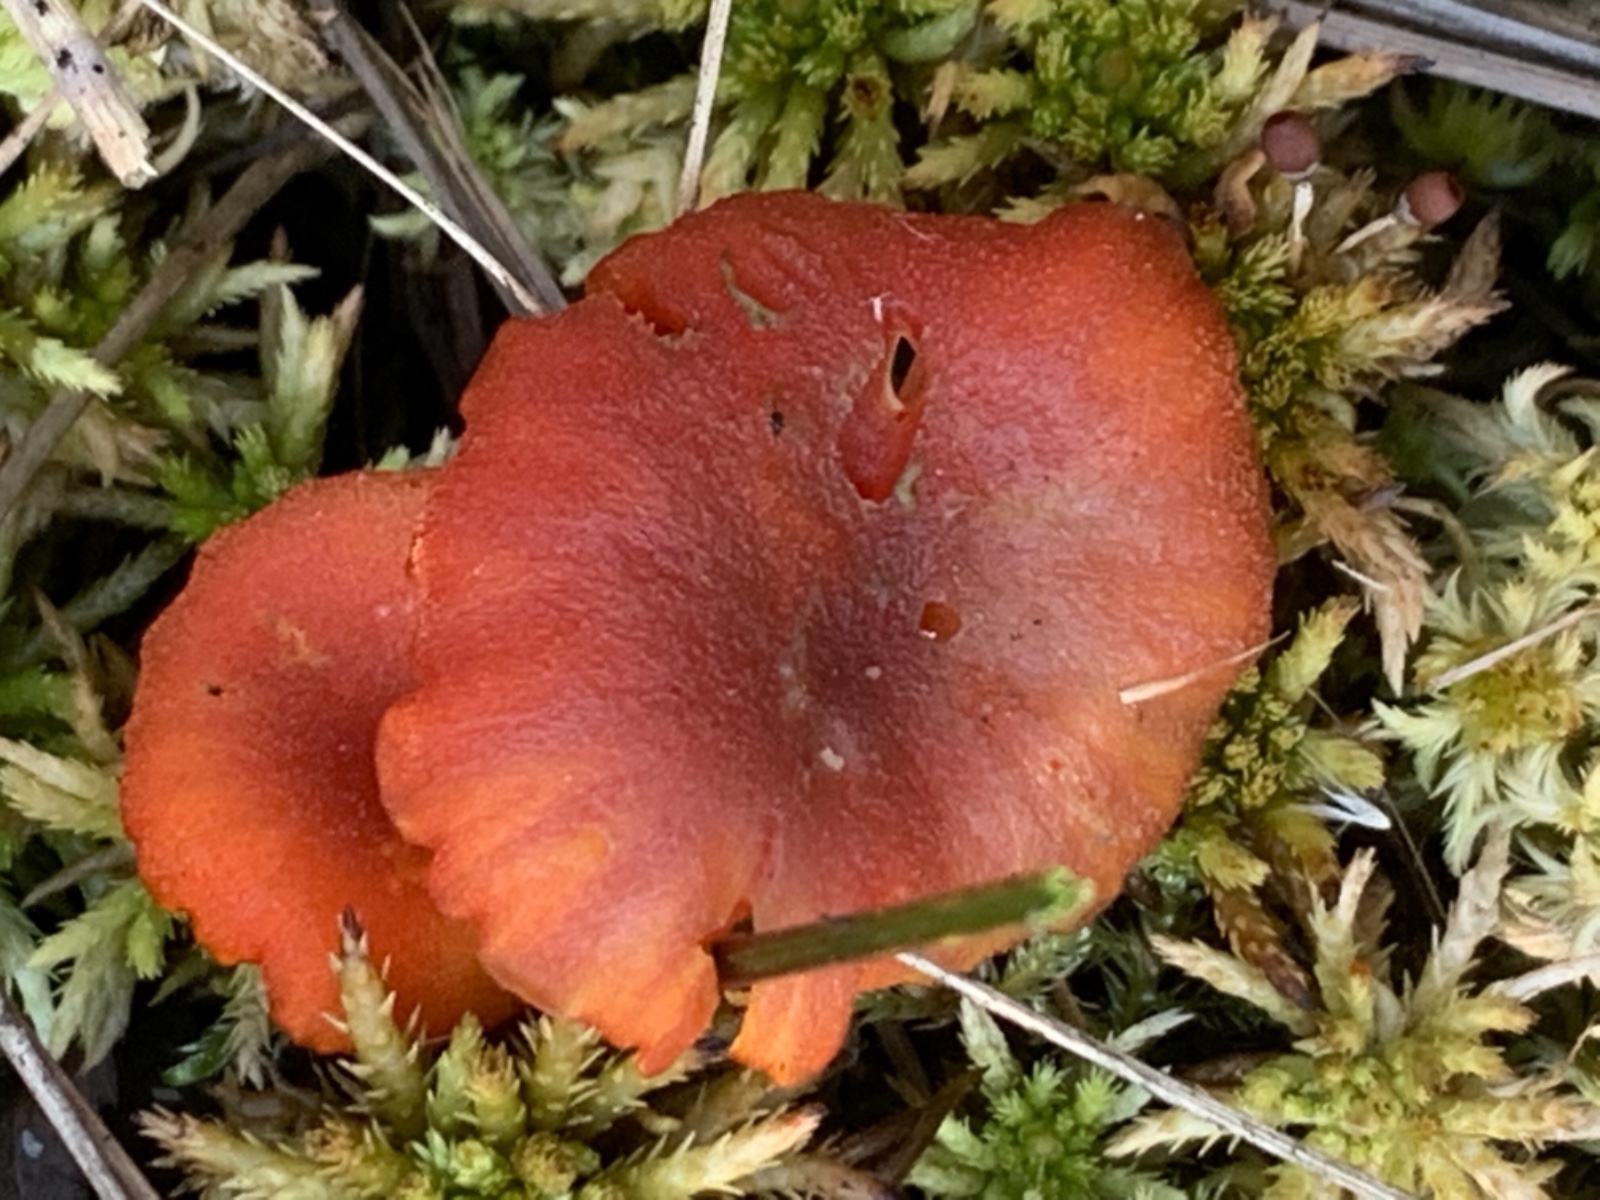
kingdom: Fungi
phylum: Basidiomycota
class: Agaricomycetes
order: Agaricales
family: Hygrophoraceae
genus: Hygrocybe
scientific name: Hygrocybe coccineocrenata
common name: tørvemos-vokshat
